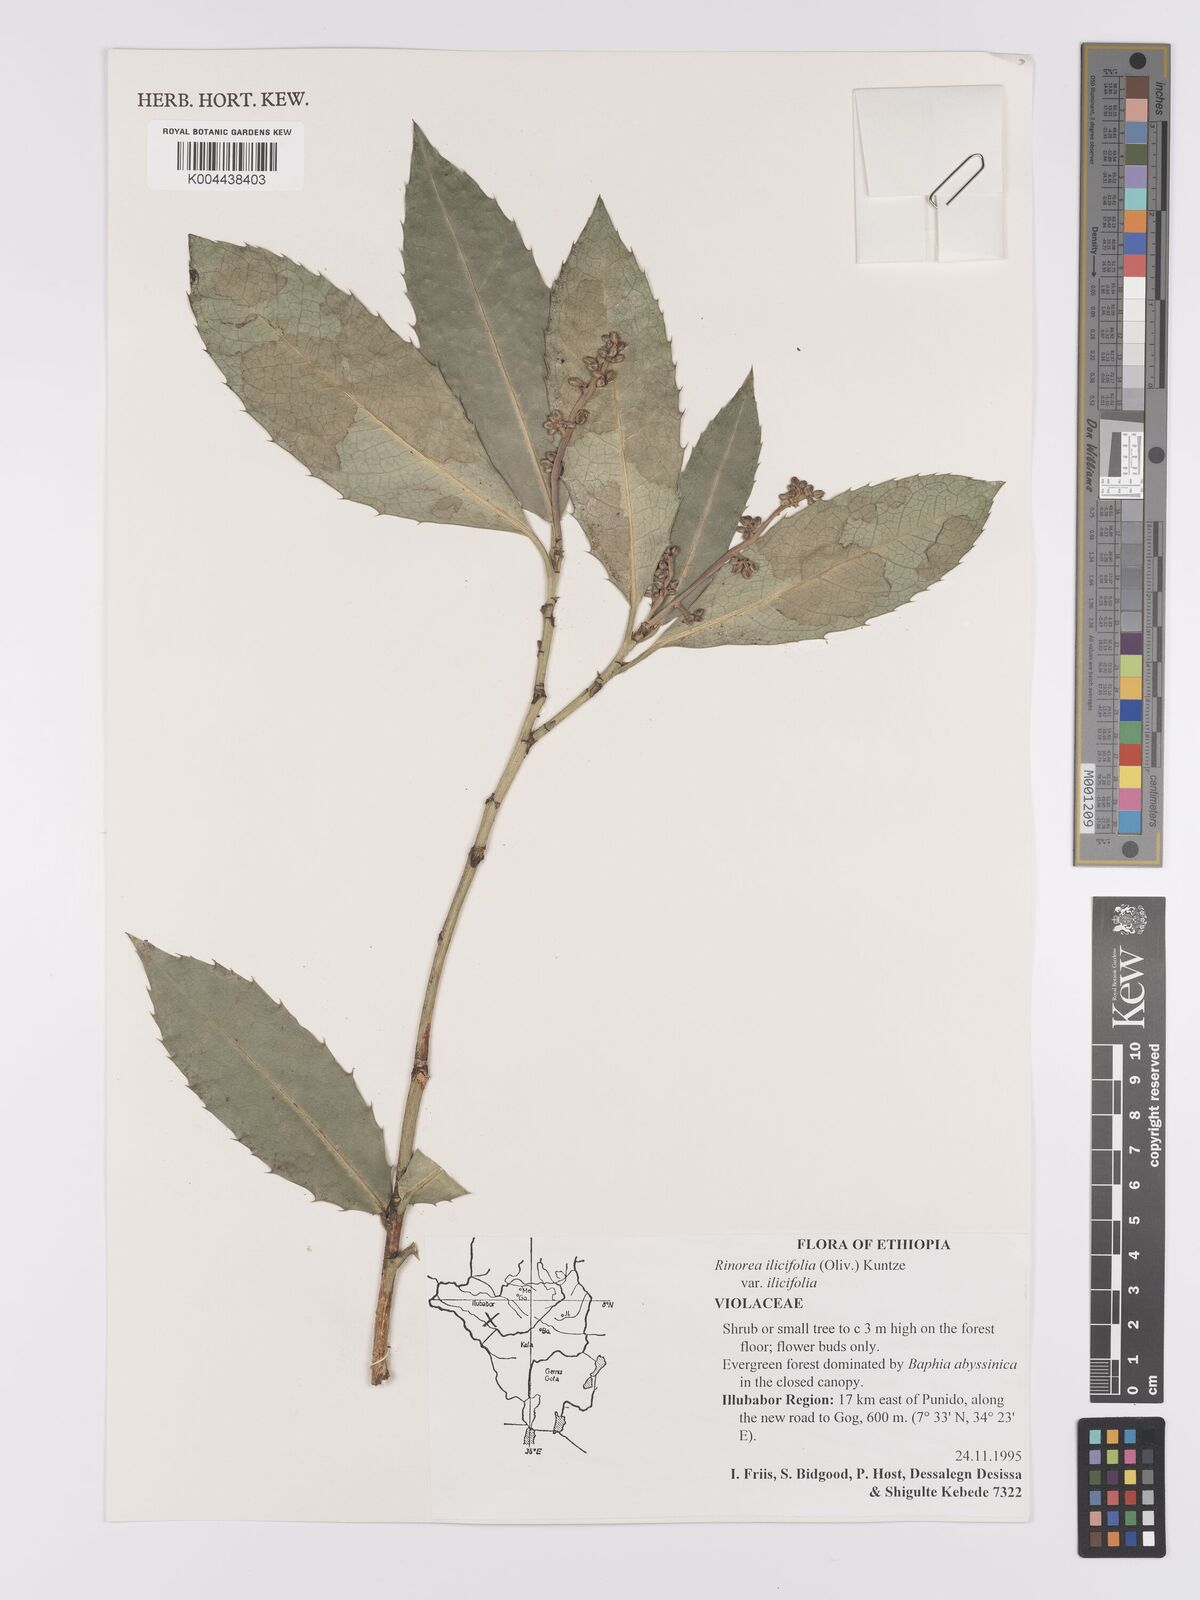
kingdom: Plantae
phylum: Tracheophyta
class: Magnoliopsida
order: Malpighiales
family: Violaceae
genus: Rinorea
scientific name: Rinorea ilicifolia
